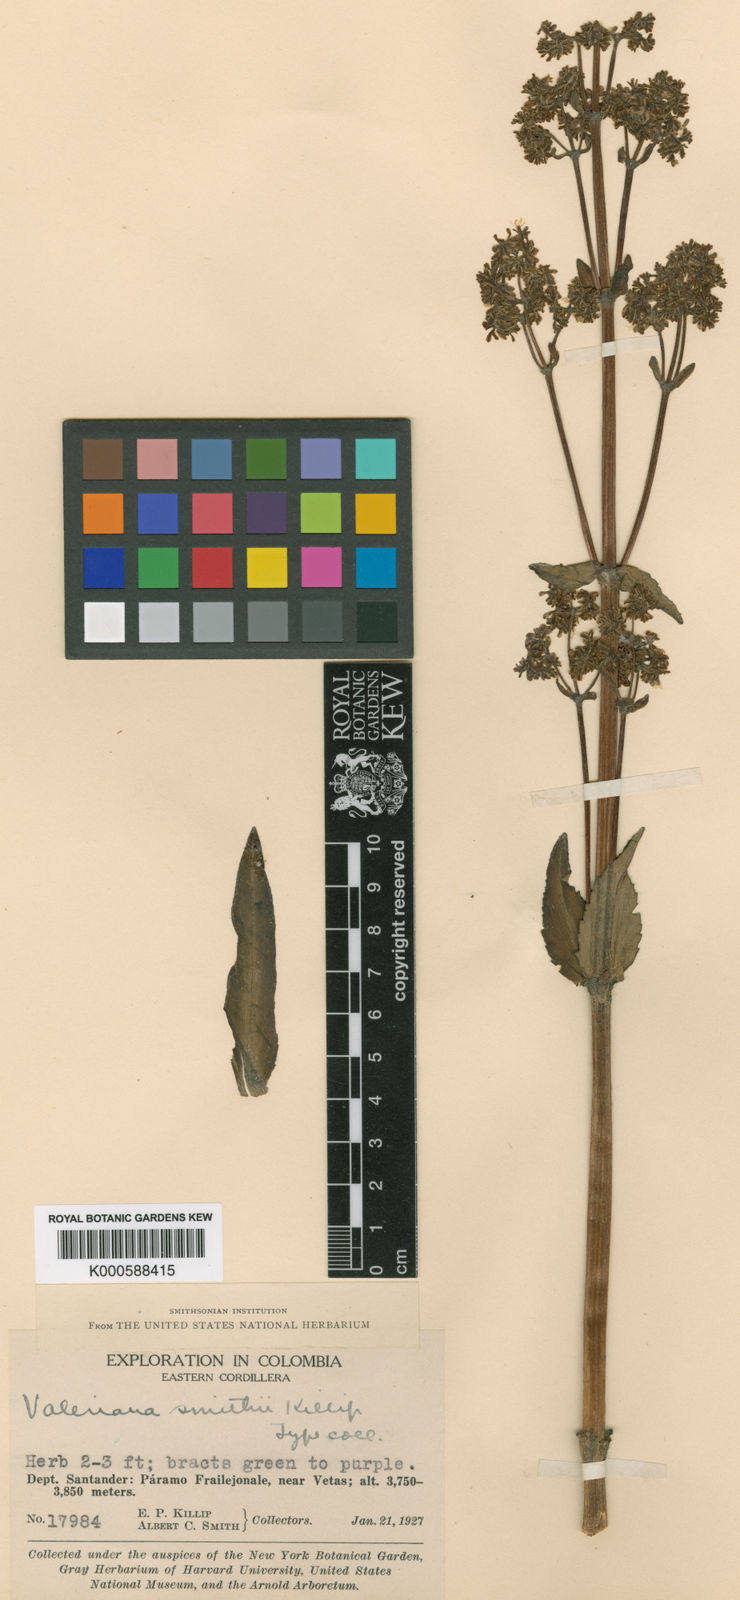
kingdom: Plantae
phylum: Tracheophyta
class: Magnoliopsida
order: Dipsacales
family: Caprifoliaceae
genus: Valeriana
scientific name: Valeriana smithii
